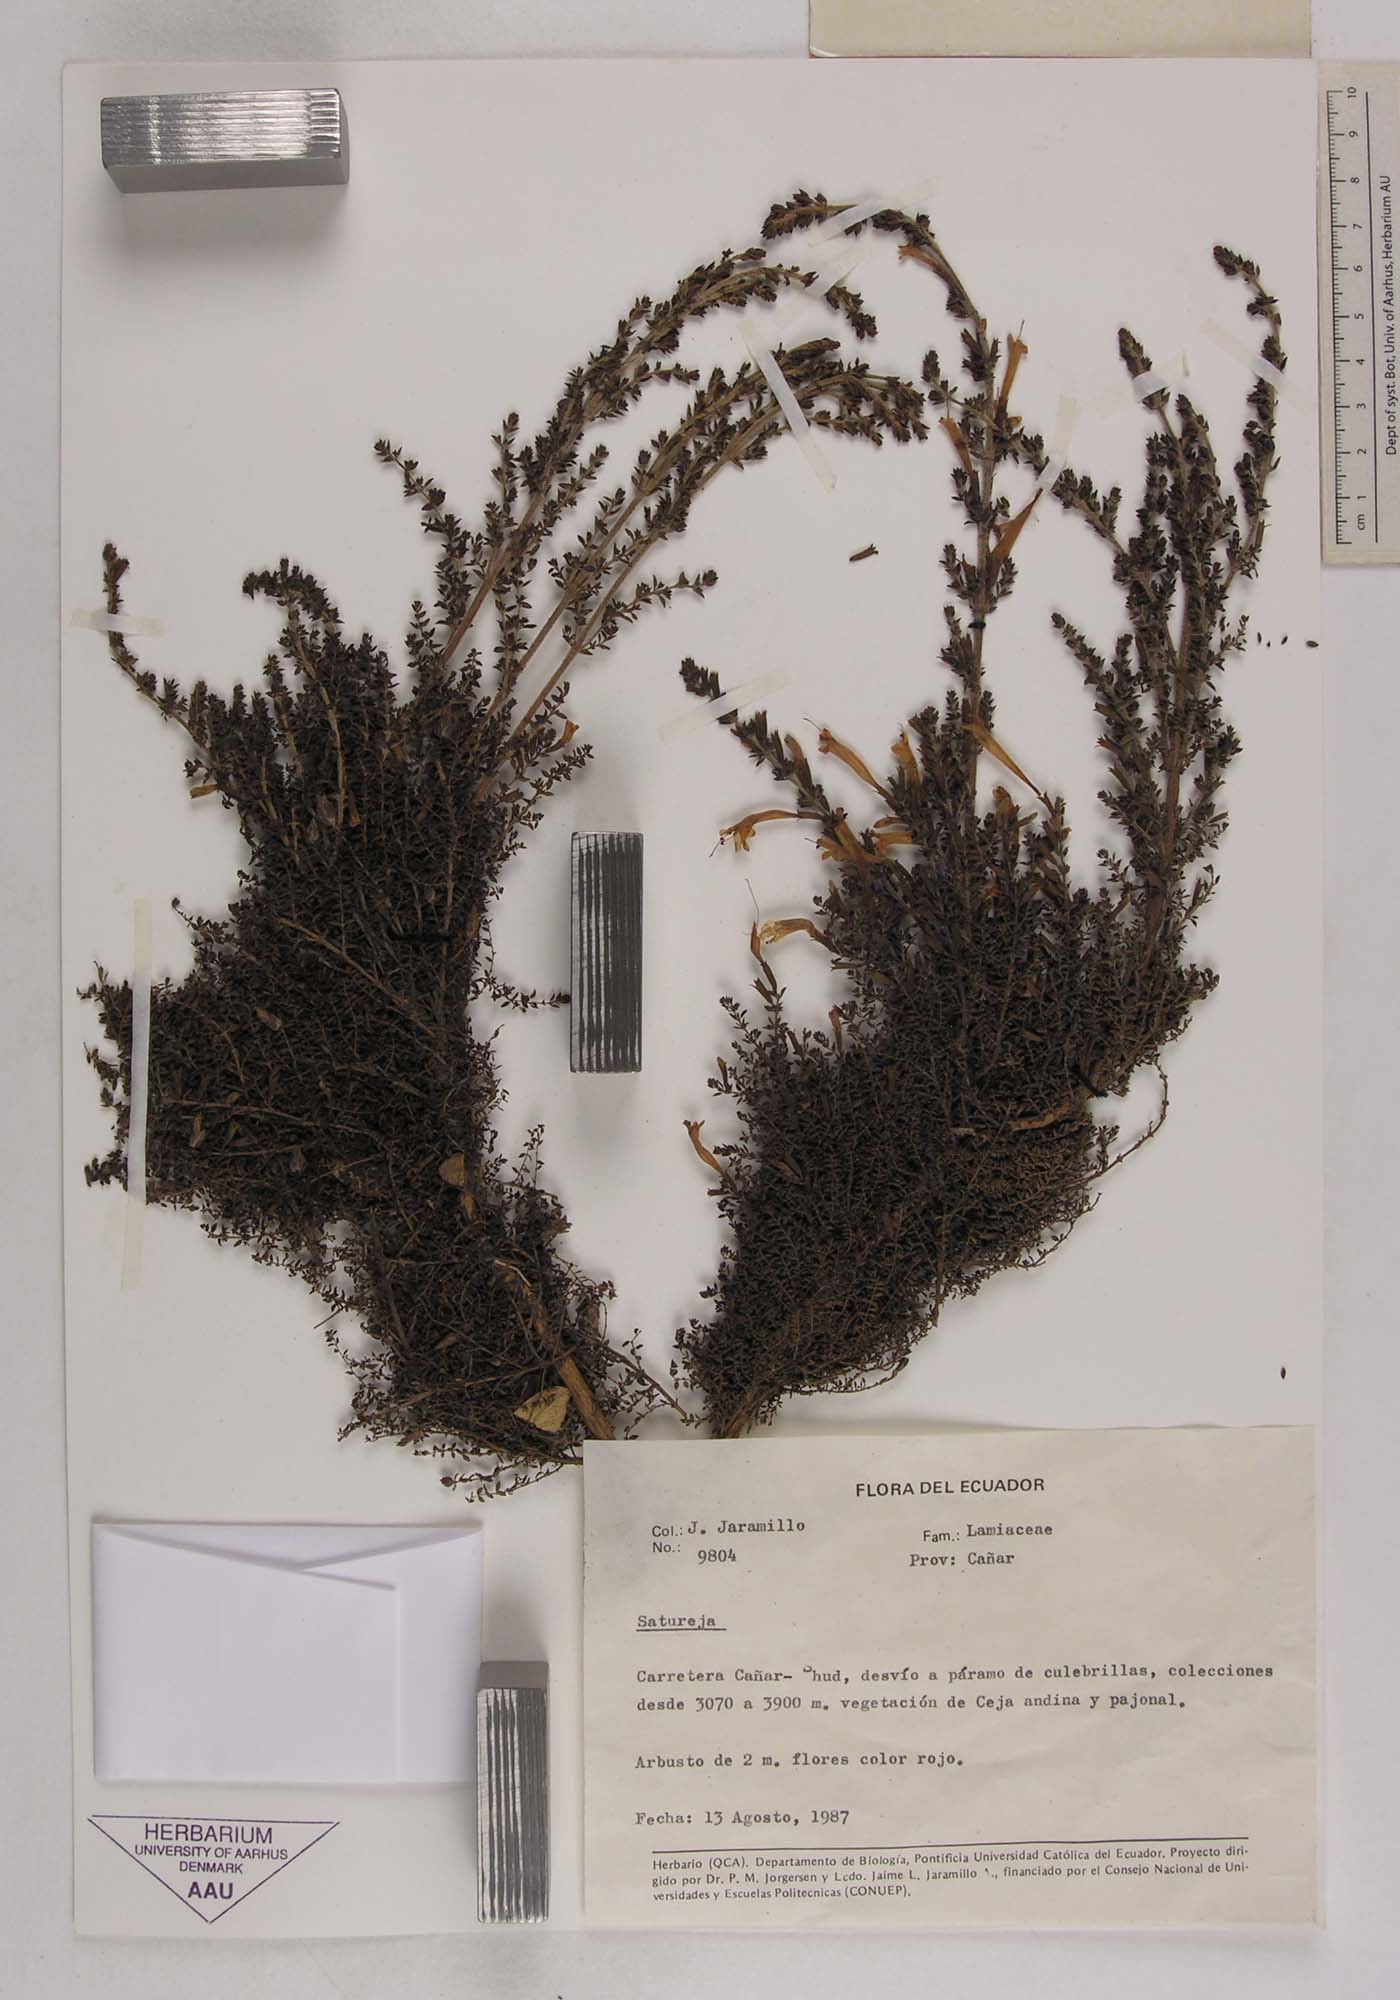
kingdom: Plantae
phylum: Tracheophyta
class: Magnoliopsida
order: Lamiales
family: Lamiaceae
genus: Satureja
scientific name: Satureja
